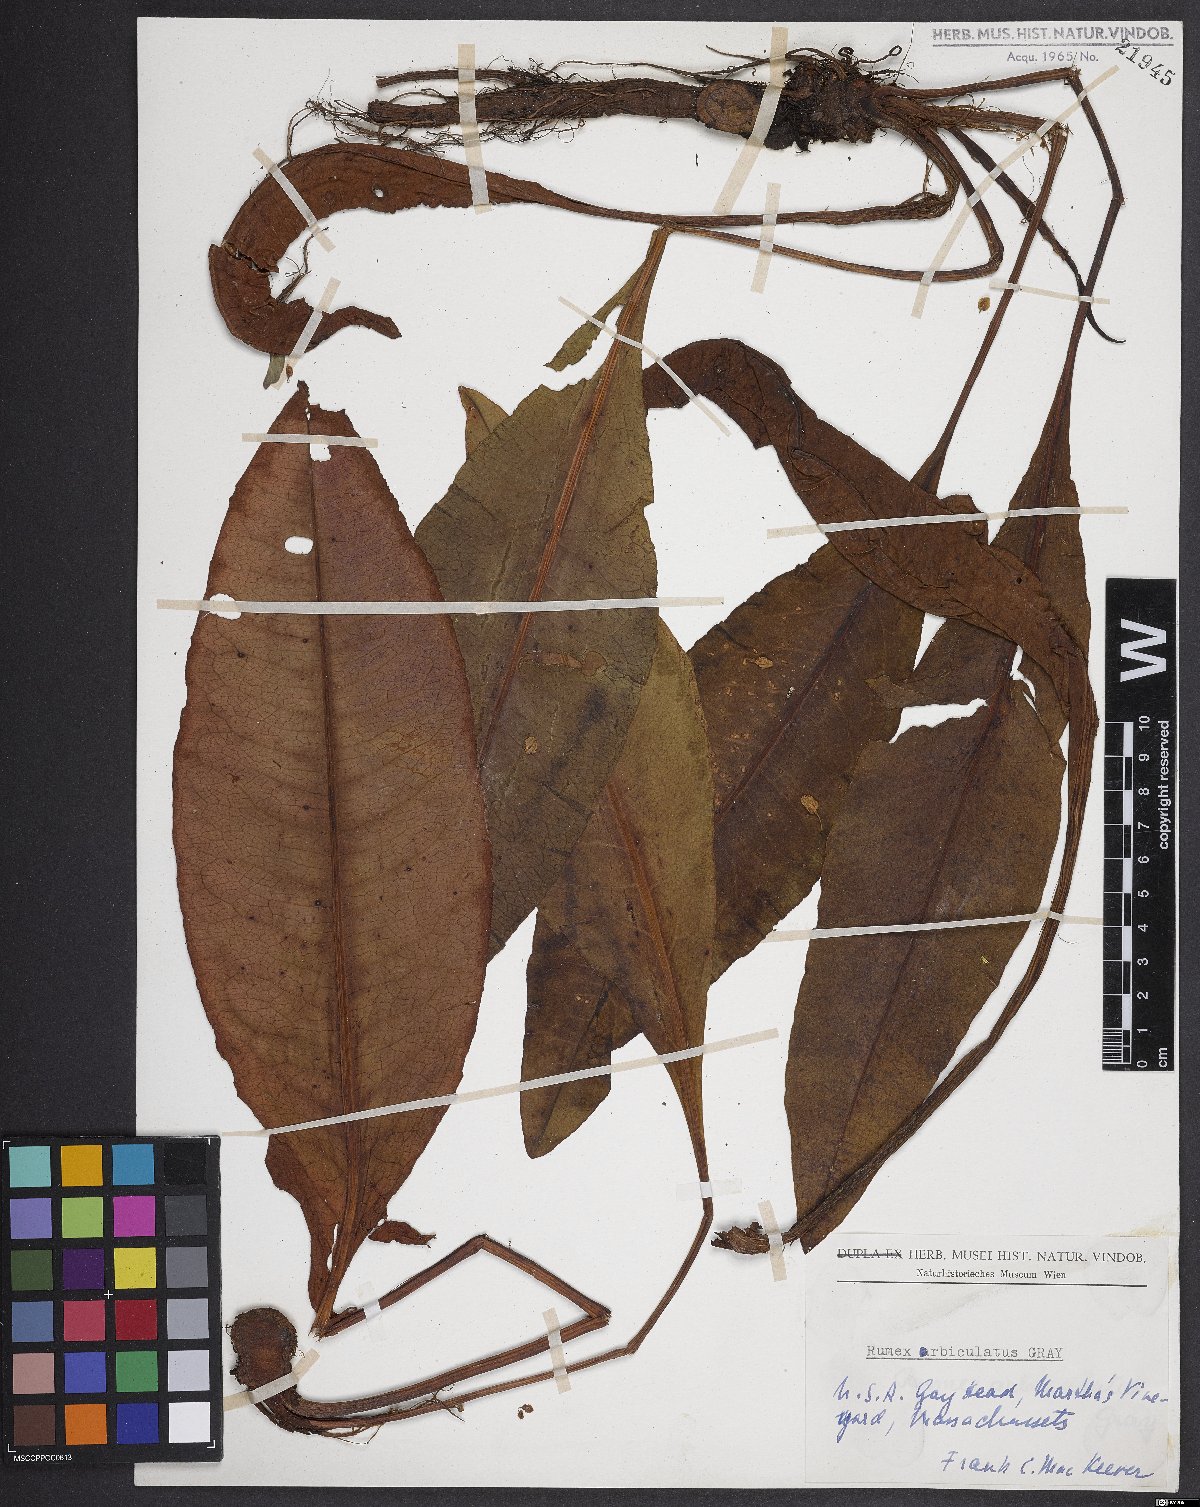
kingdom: Plantae
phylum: Tracheophyta
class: Magnoliopsida
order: Caryophyllales
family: Polygonaceae
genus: Rumex
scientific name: Rumex orbiculatus
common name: Greater water dock
